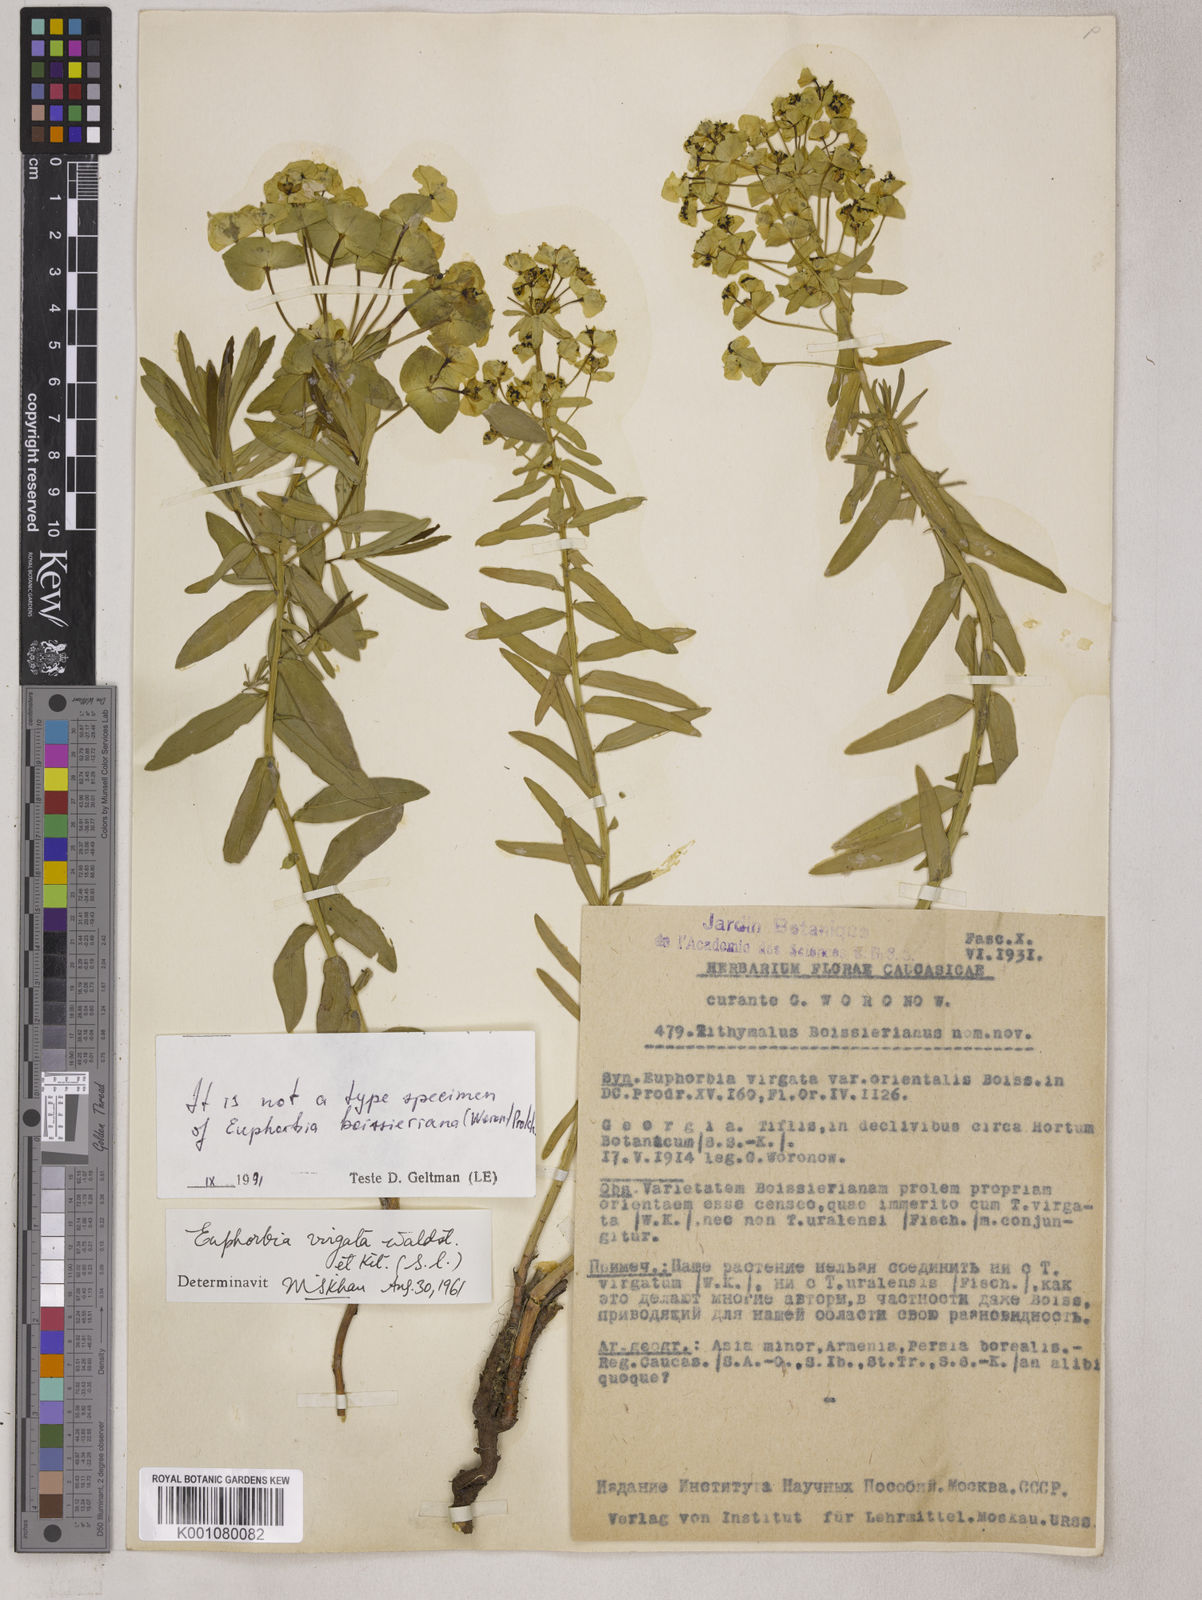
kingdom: Plantae
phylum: Tracheophyta
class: Magnoliopsida
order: Malpighiales
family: Euphorbiaceae
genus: Euphorbia
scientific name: Euphorbia virgata
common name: Leafy spurge
